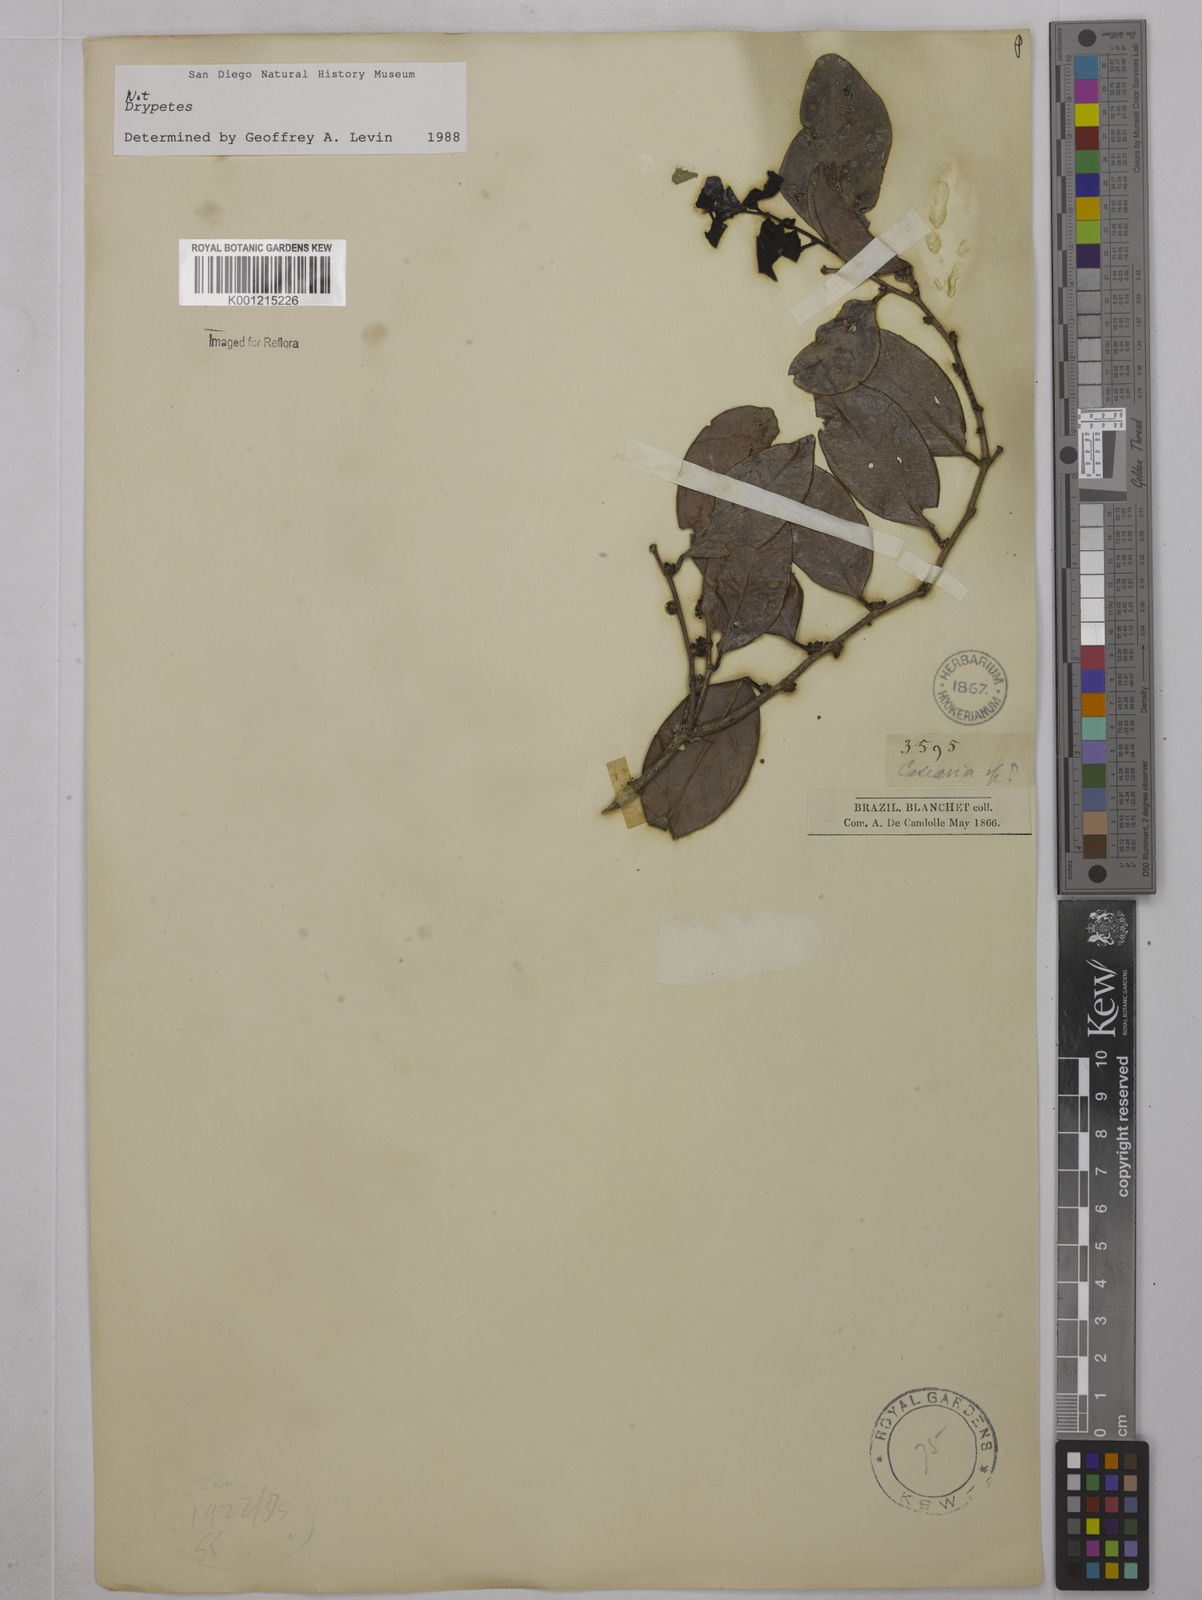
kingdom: Plantae
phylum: Tracheophyta
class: Magnoliopsida
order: Malpighiales
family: Euphorbiaceae
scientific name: Euphorbiaceae
